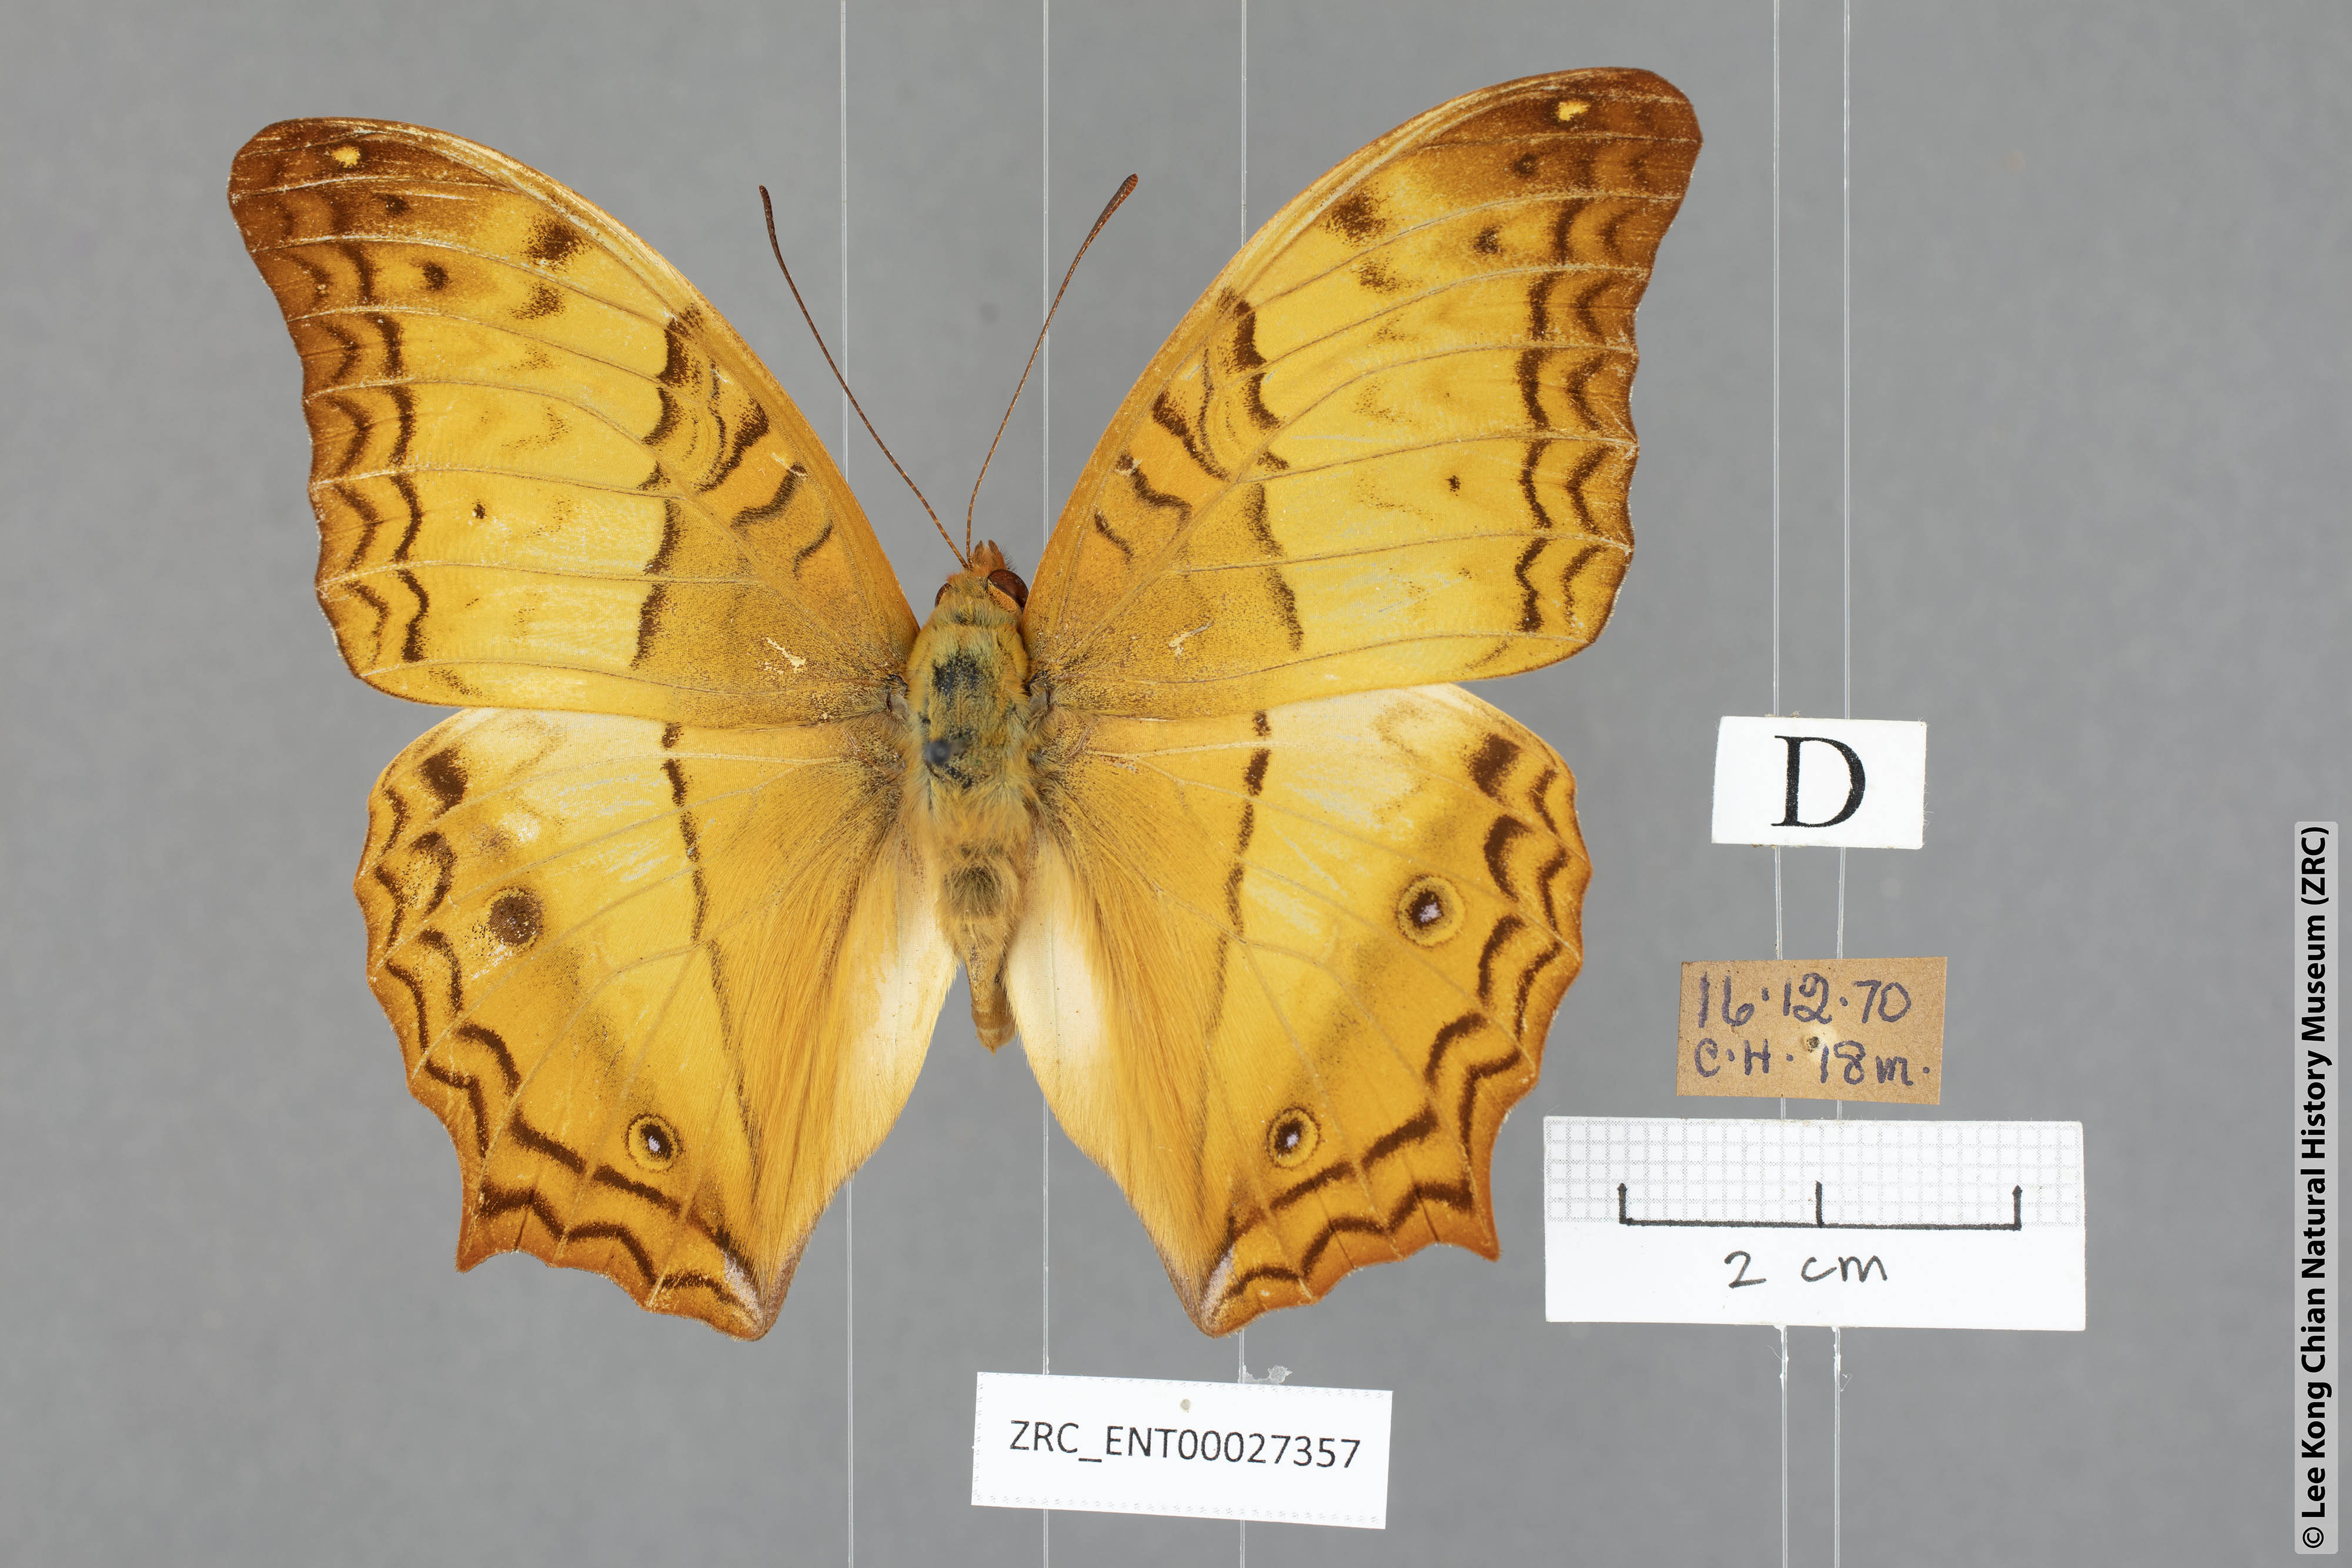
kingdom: Animalia
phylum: Arthropoda
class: Insecta
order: Lepidoptera
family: Nymphalidae
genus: Vindula
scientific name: Vindula erota
